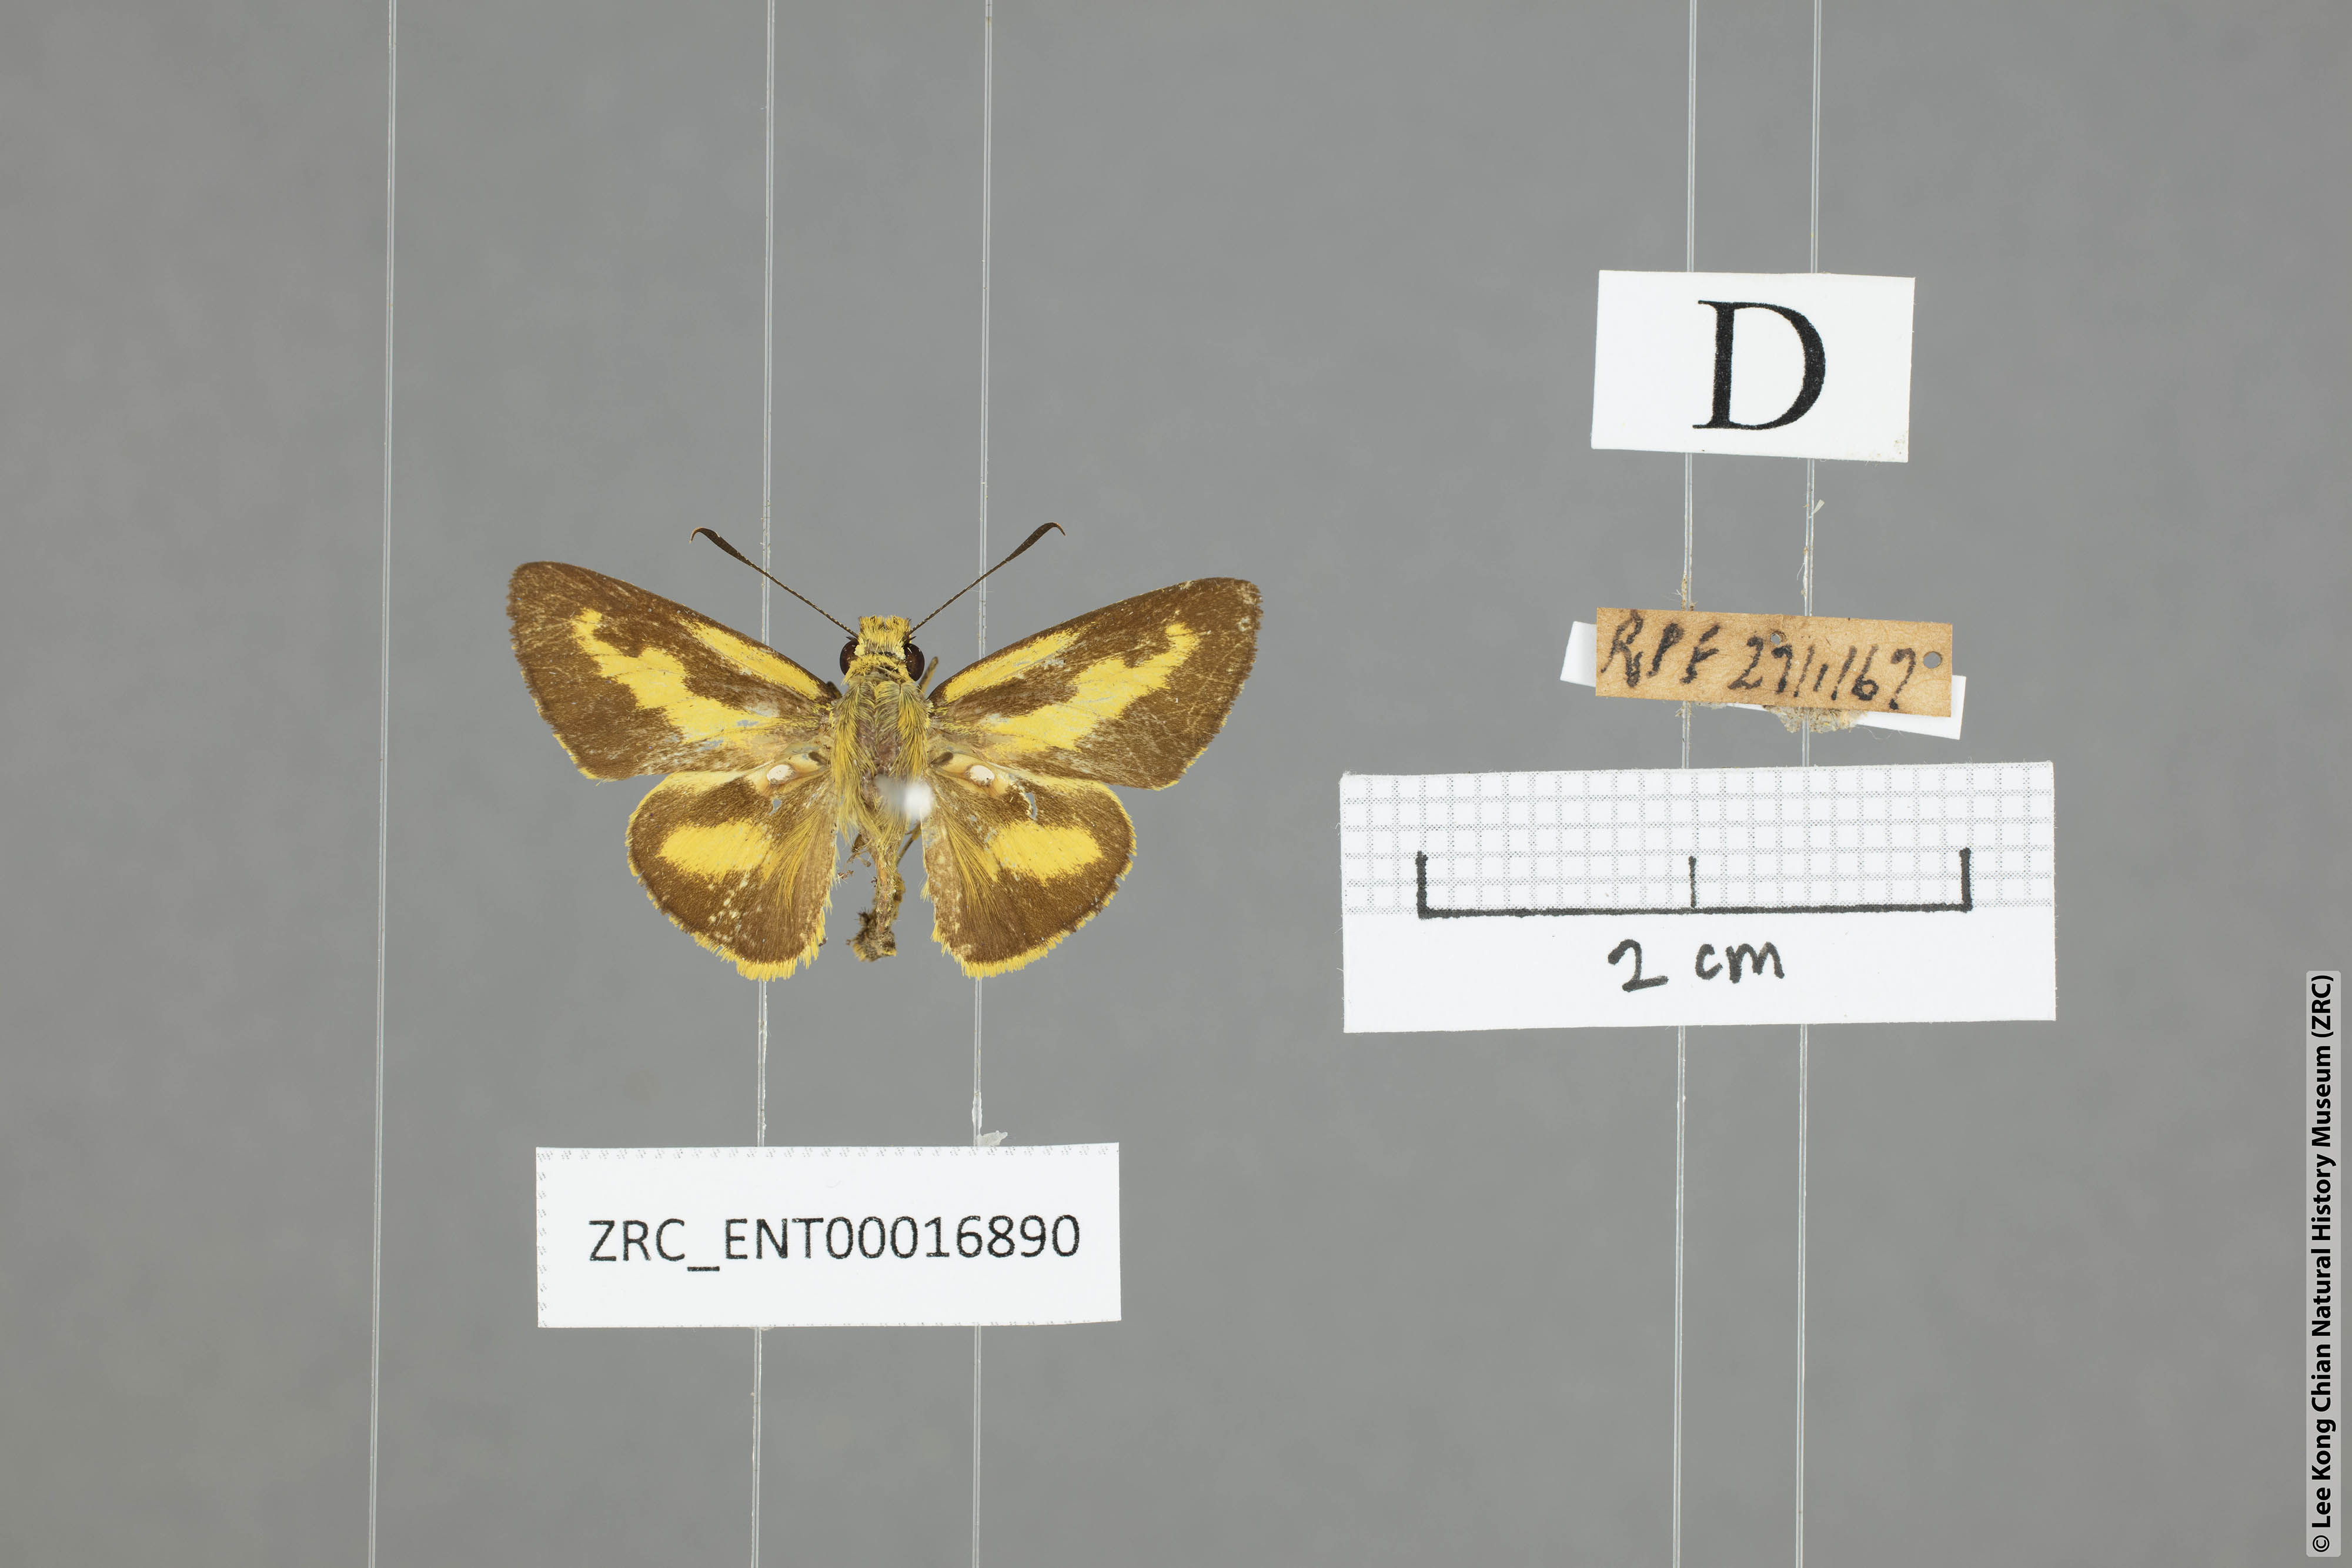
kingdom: Animalia
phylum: Arthropoda
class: Insecta
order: Lepidoptera
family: Hesperiidae
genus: Cupitha
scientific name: Cupitha purreea
